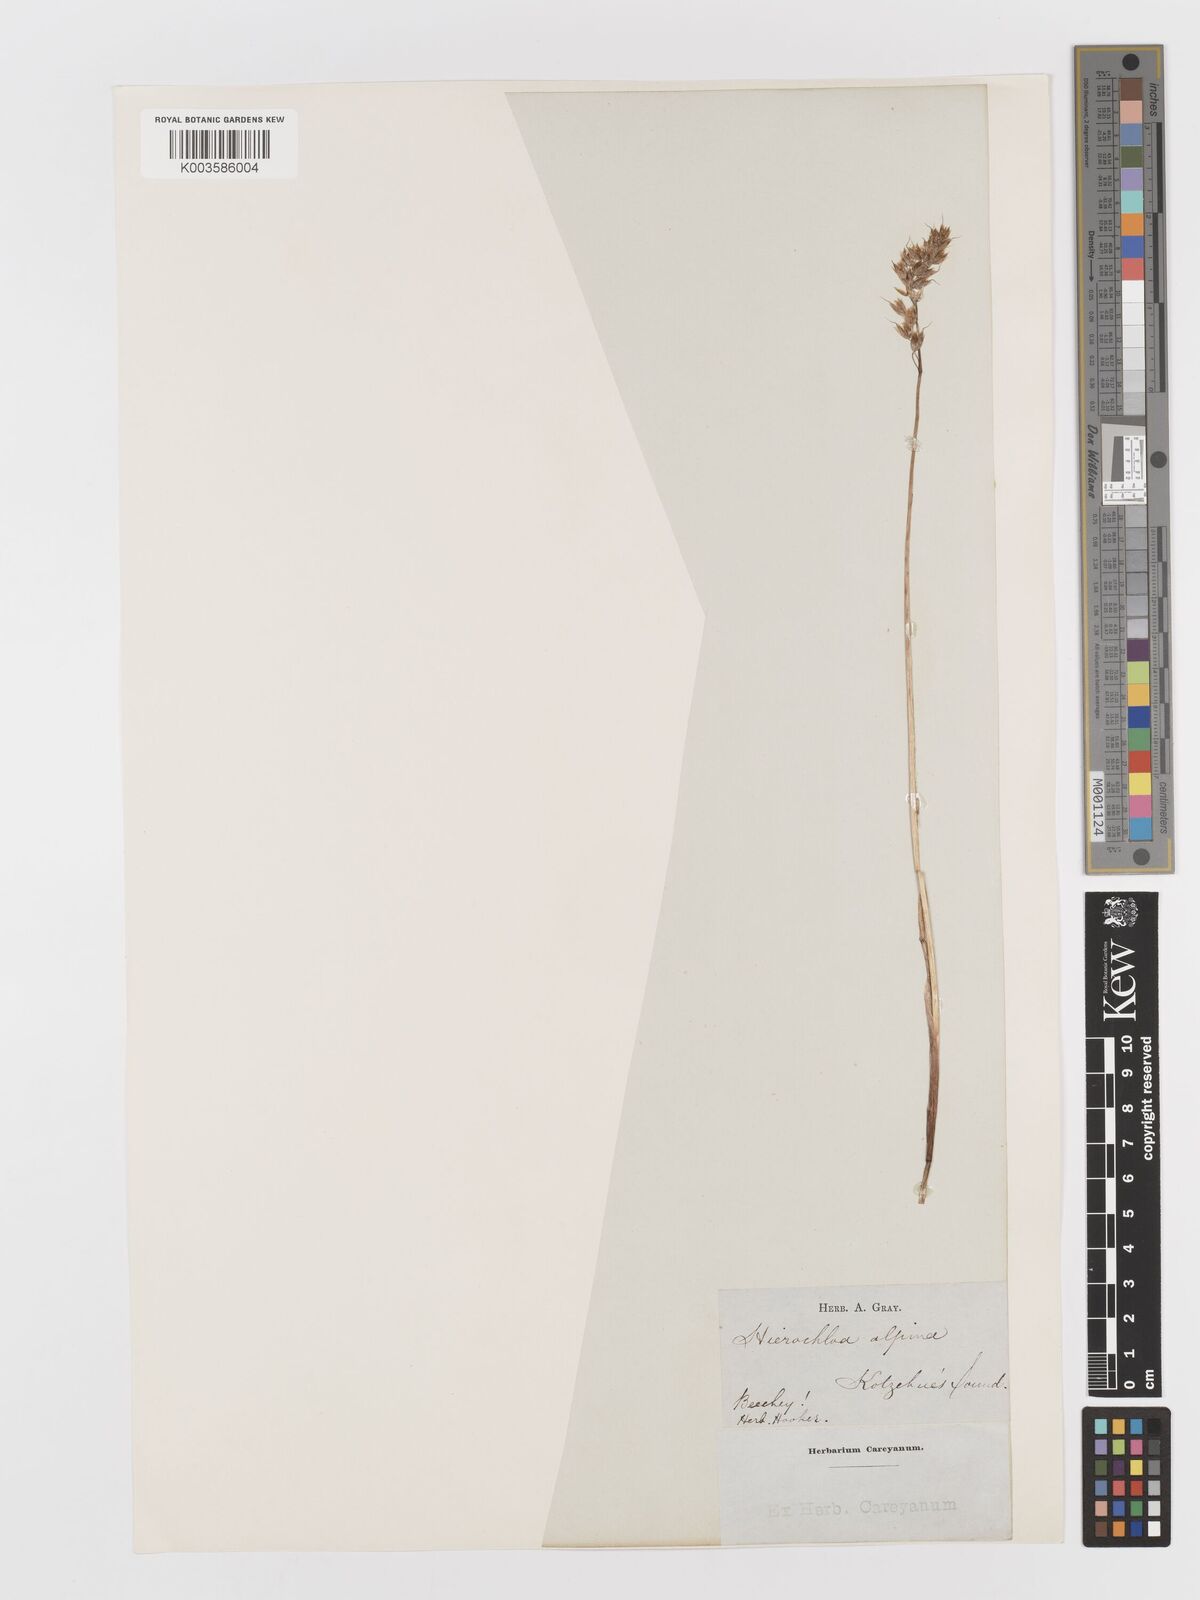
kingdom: Plantae
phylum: Tracheophyta
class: Liliopsida
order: Poales
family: Poaceae
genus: Anthoxanthum
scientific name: Anthoxanthum monticola
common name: Alpine sweetgrass
